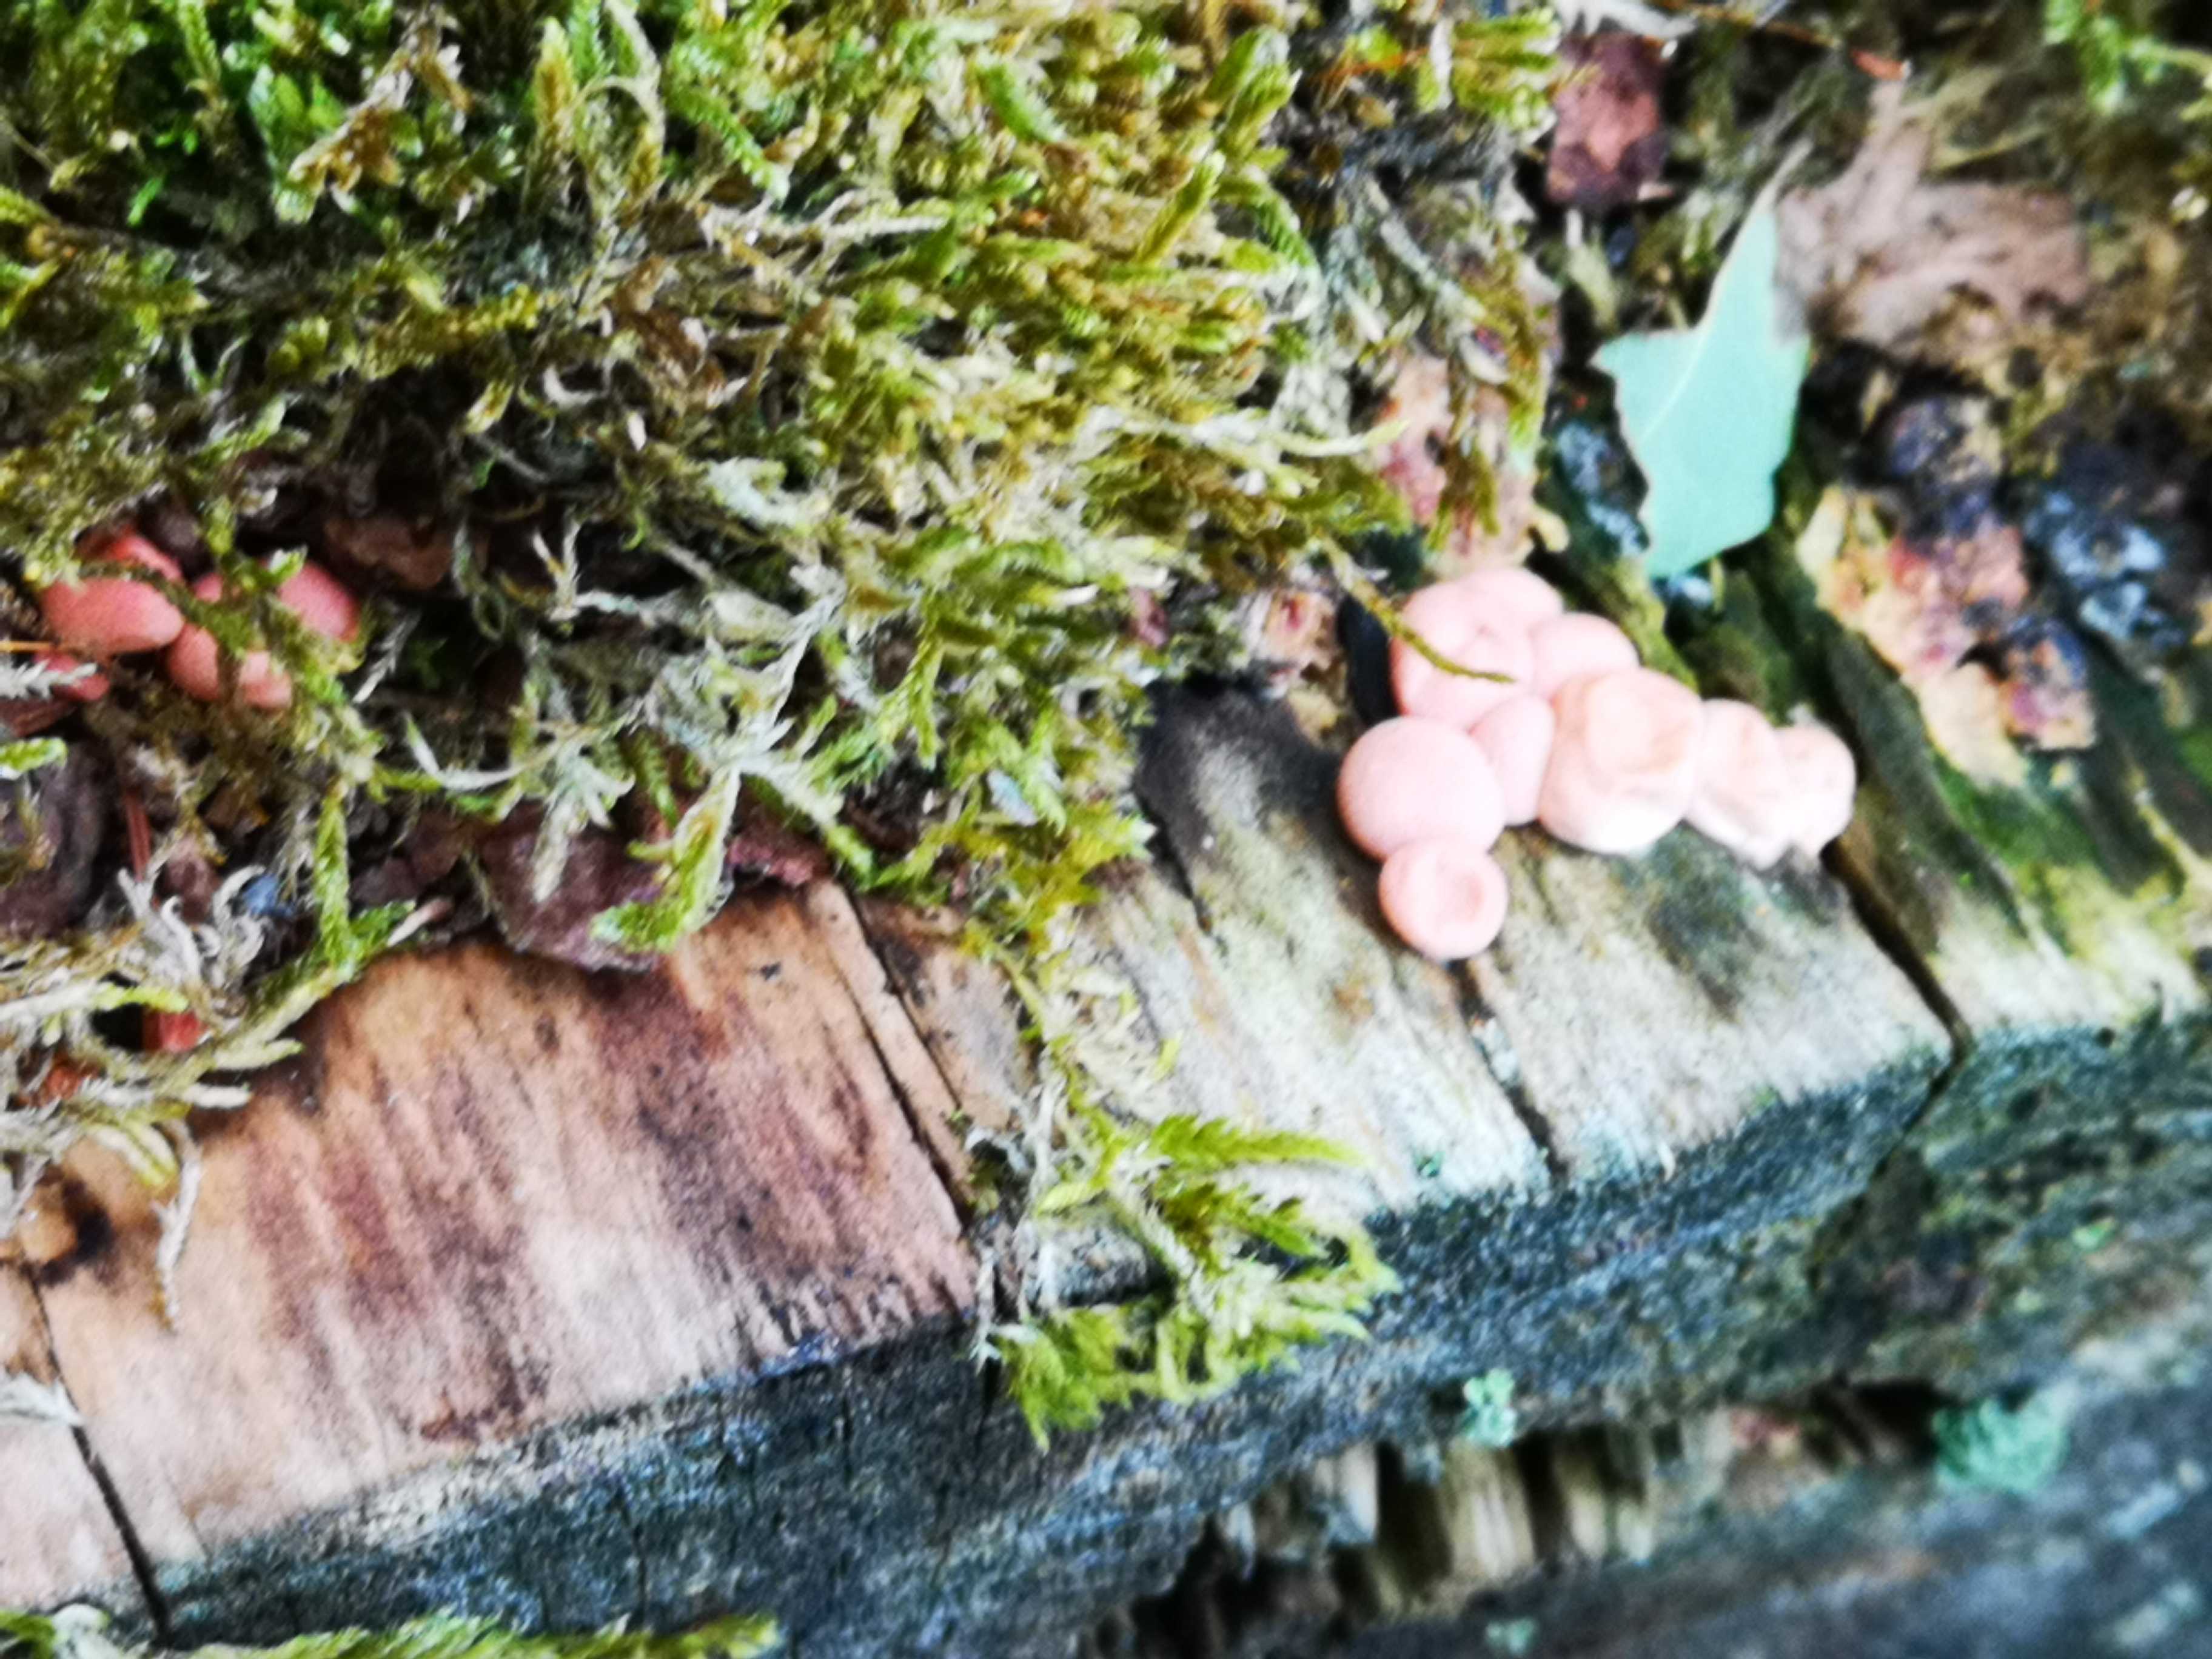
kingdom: Protozoa
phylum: Mycetozoa
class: Myxomycetes
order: Cribrariales
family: Tubiferaceae
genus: Lycogala
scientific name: Lycogala epidendrum
